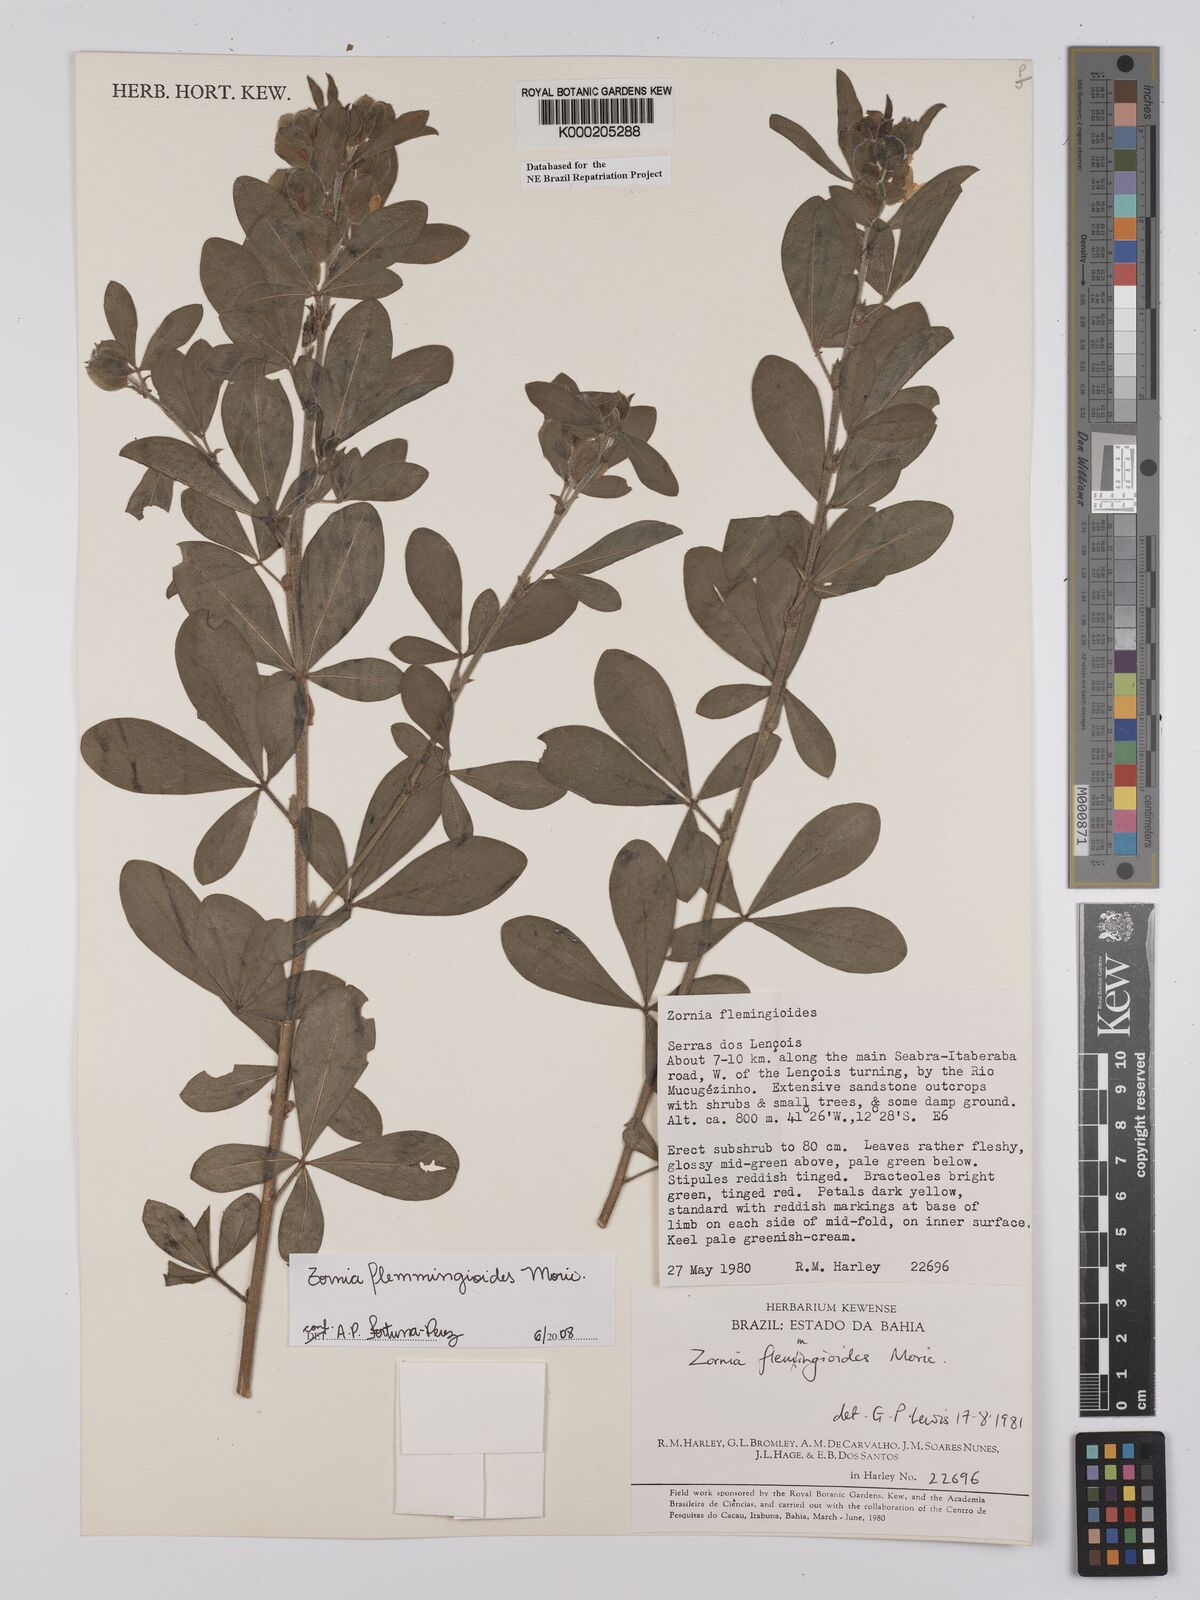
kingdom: Plantae
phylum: Tracheophyta
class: Magnoliopsida
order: Fabales
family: Fabaceae
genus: Zornia
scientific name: Zornia flemmingioides
